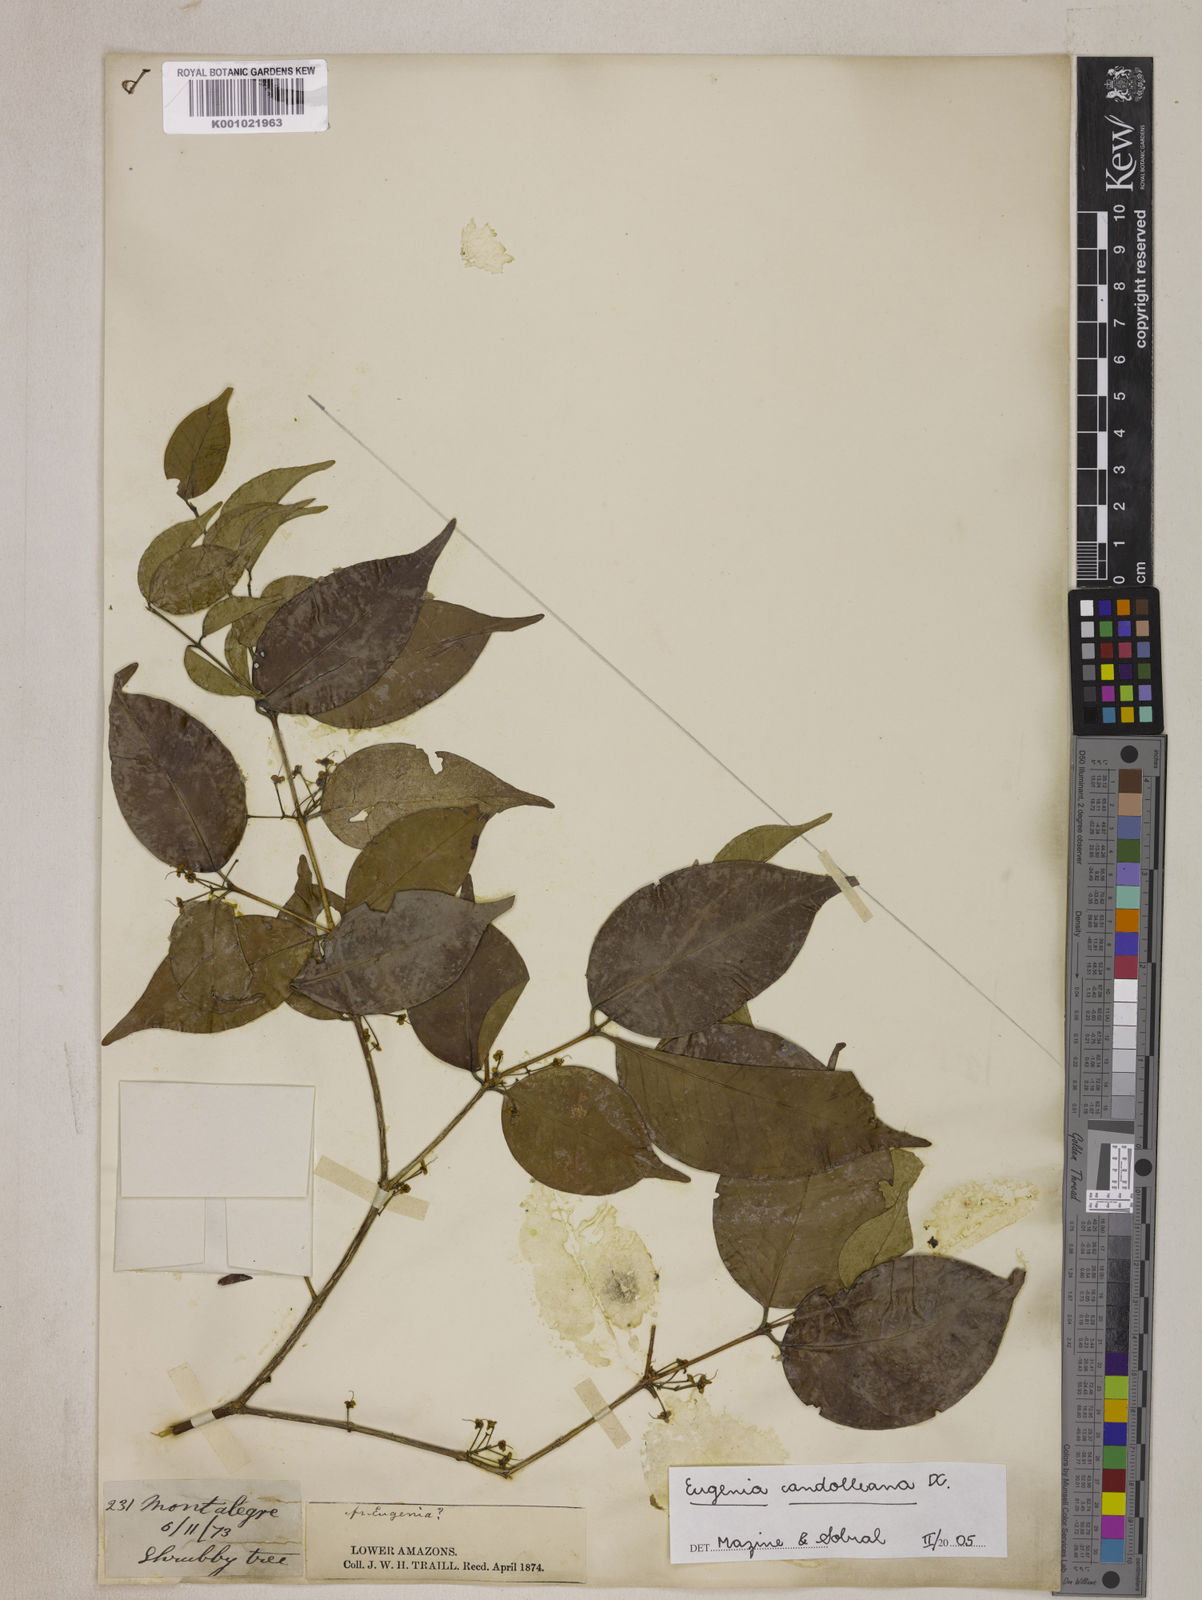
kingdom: Plantae
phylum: Tracheophyta
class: Magnoliopsida
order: Myrtales
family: Myrtaceae
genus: Eugenia
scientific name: Eugenia candolleana
